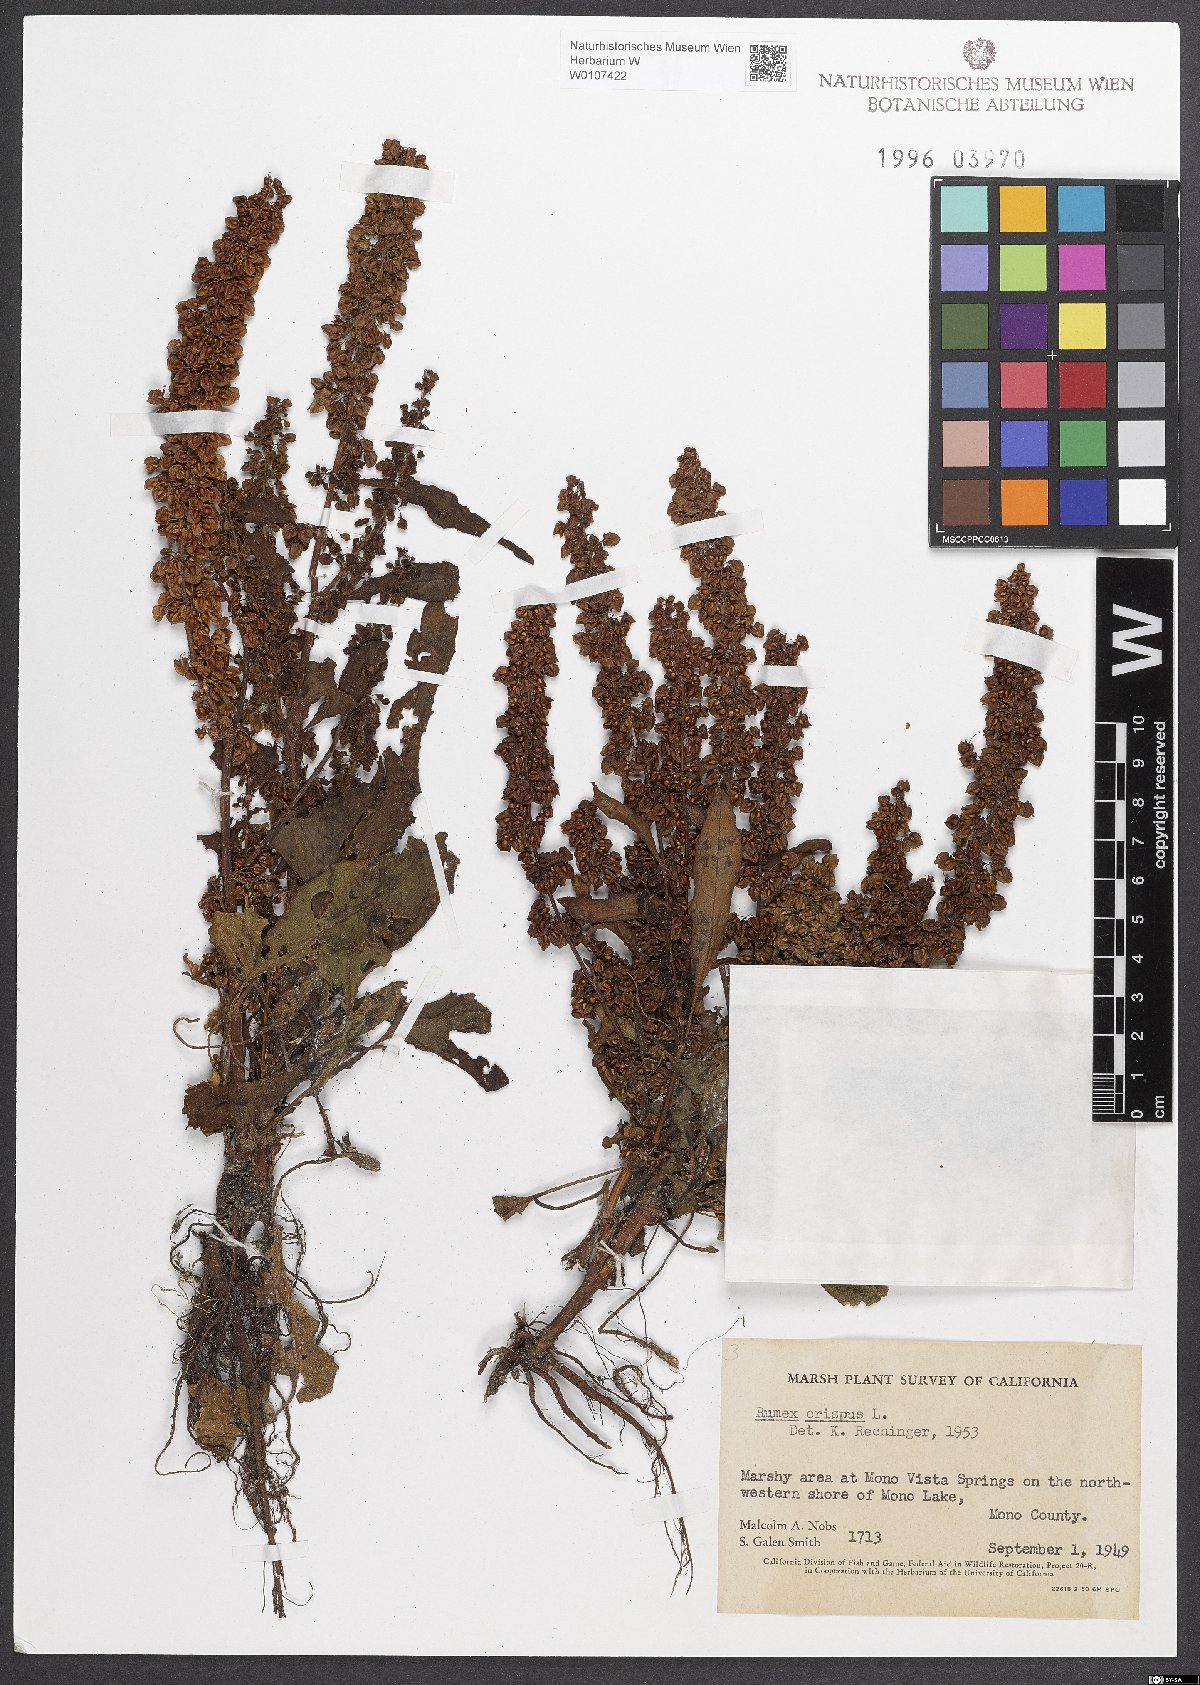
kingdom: Plantae
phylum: Tracheophyta
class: Magnoliopsida
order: Caryophyllales
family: Polygonaceae
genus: Rumex
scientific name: Rumex crispus
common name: Curled dock
